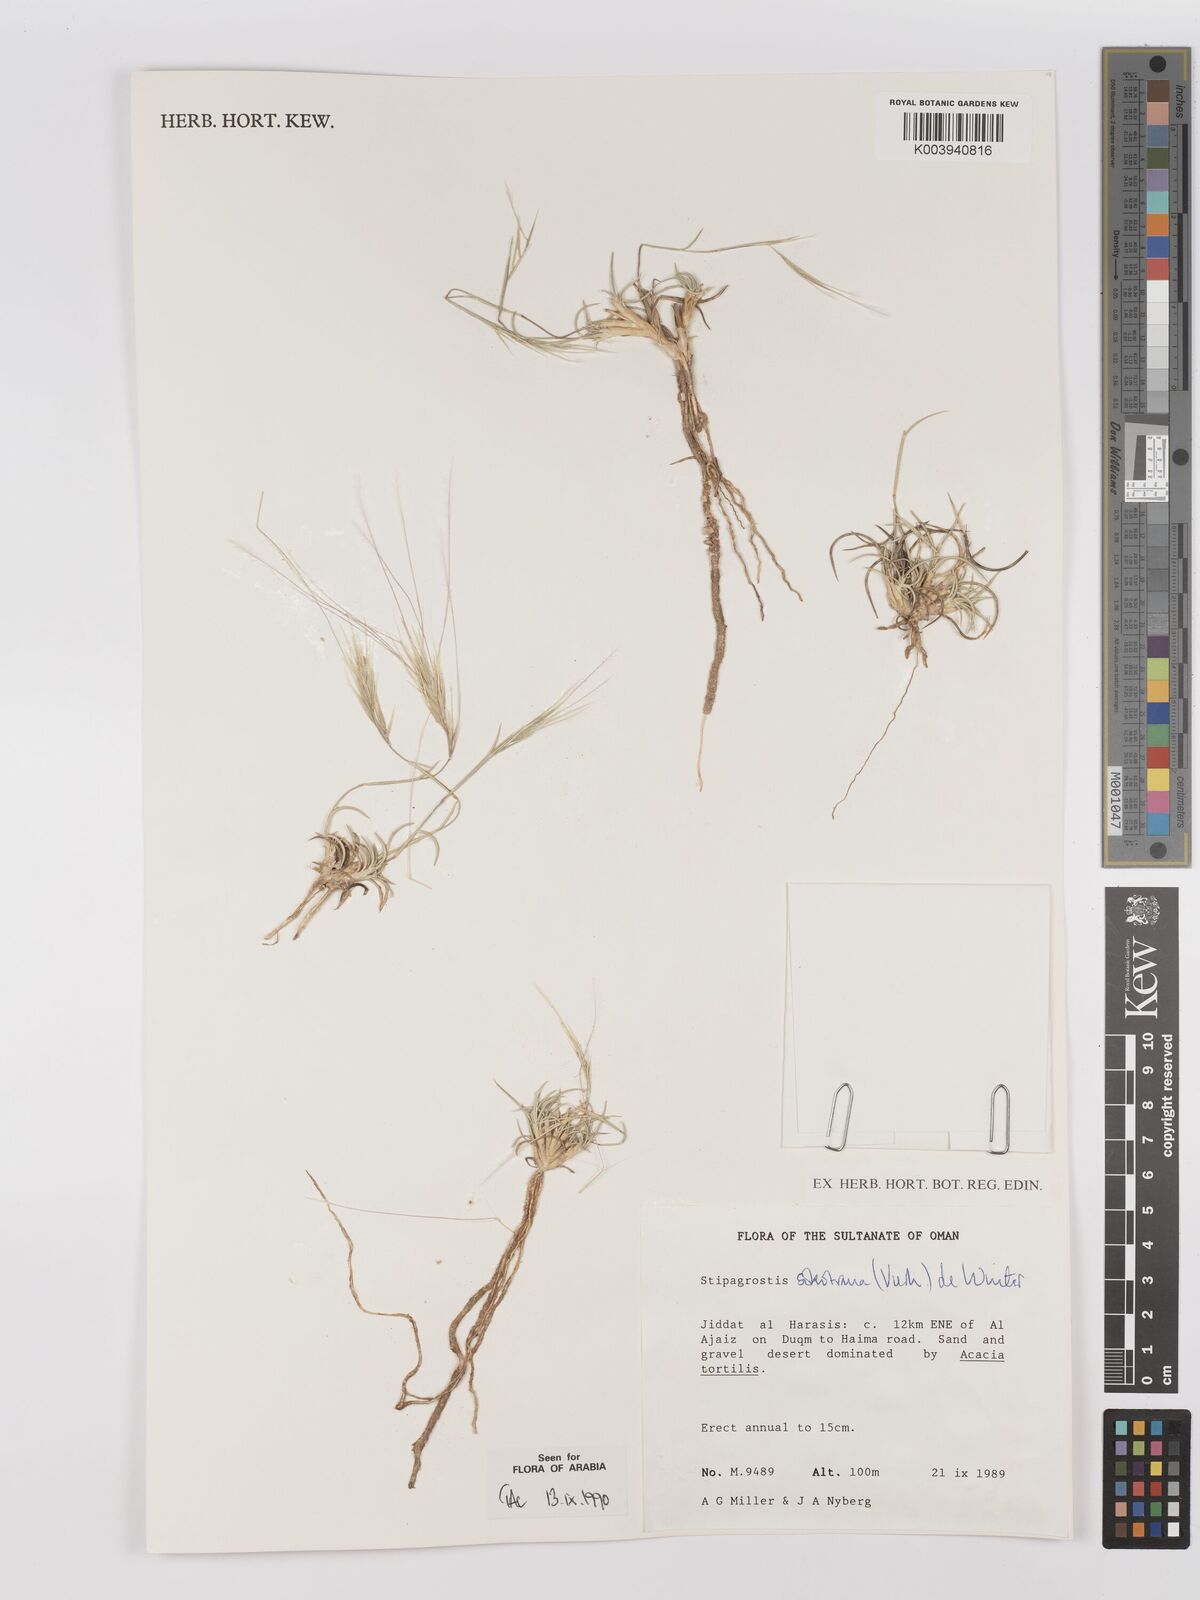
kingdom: Plantae
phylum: Tracheophyta
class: Liliopsida
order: Poales
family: Poaceae
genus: Stipagrostis
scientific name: Stipagrostis sokotrana
